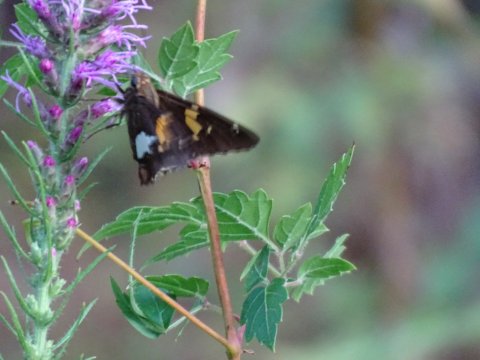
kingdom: Animalia
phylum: Arthropoda
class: Insecta
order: Lepidoptera
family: Hesperiidae
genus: Epargyreus
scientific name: Epargyreus clarus
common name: Silver-spotted Skipper
